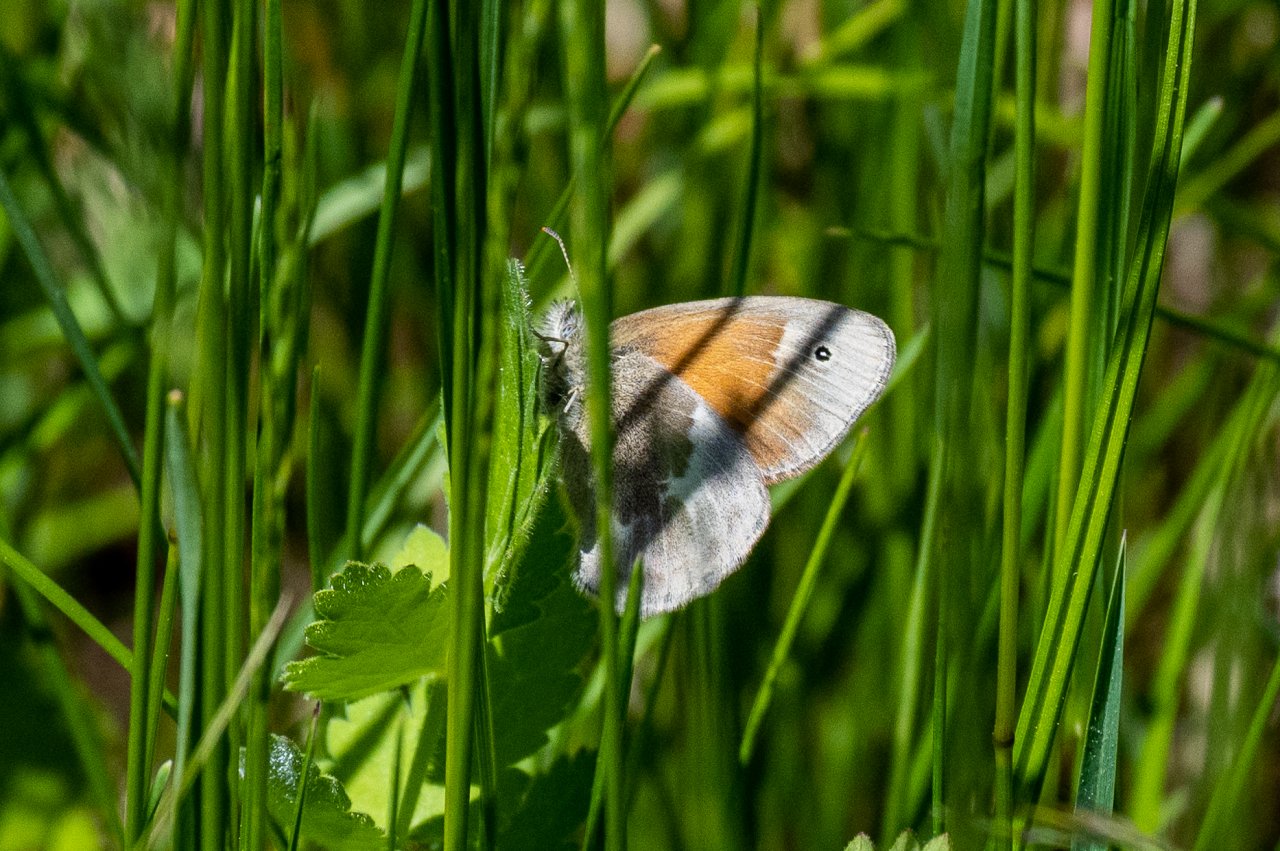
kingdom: Animalia
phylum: Arthropoda
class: Insecta
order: Lepidoptera
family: Nymphalidae
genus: Coenonympha
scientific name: Coenonympha tullia
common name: Large Heath
